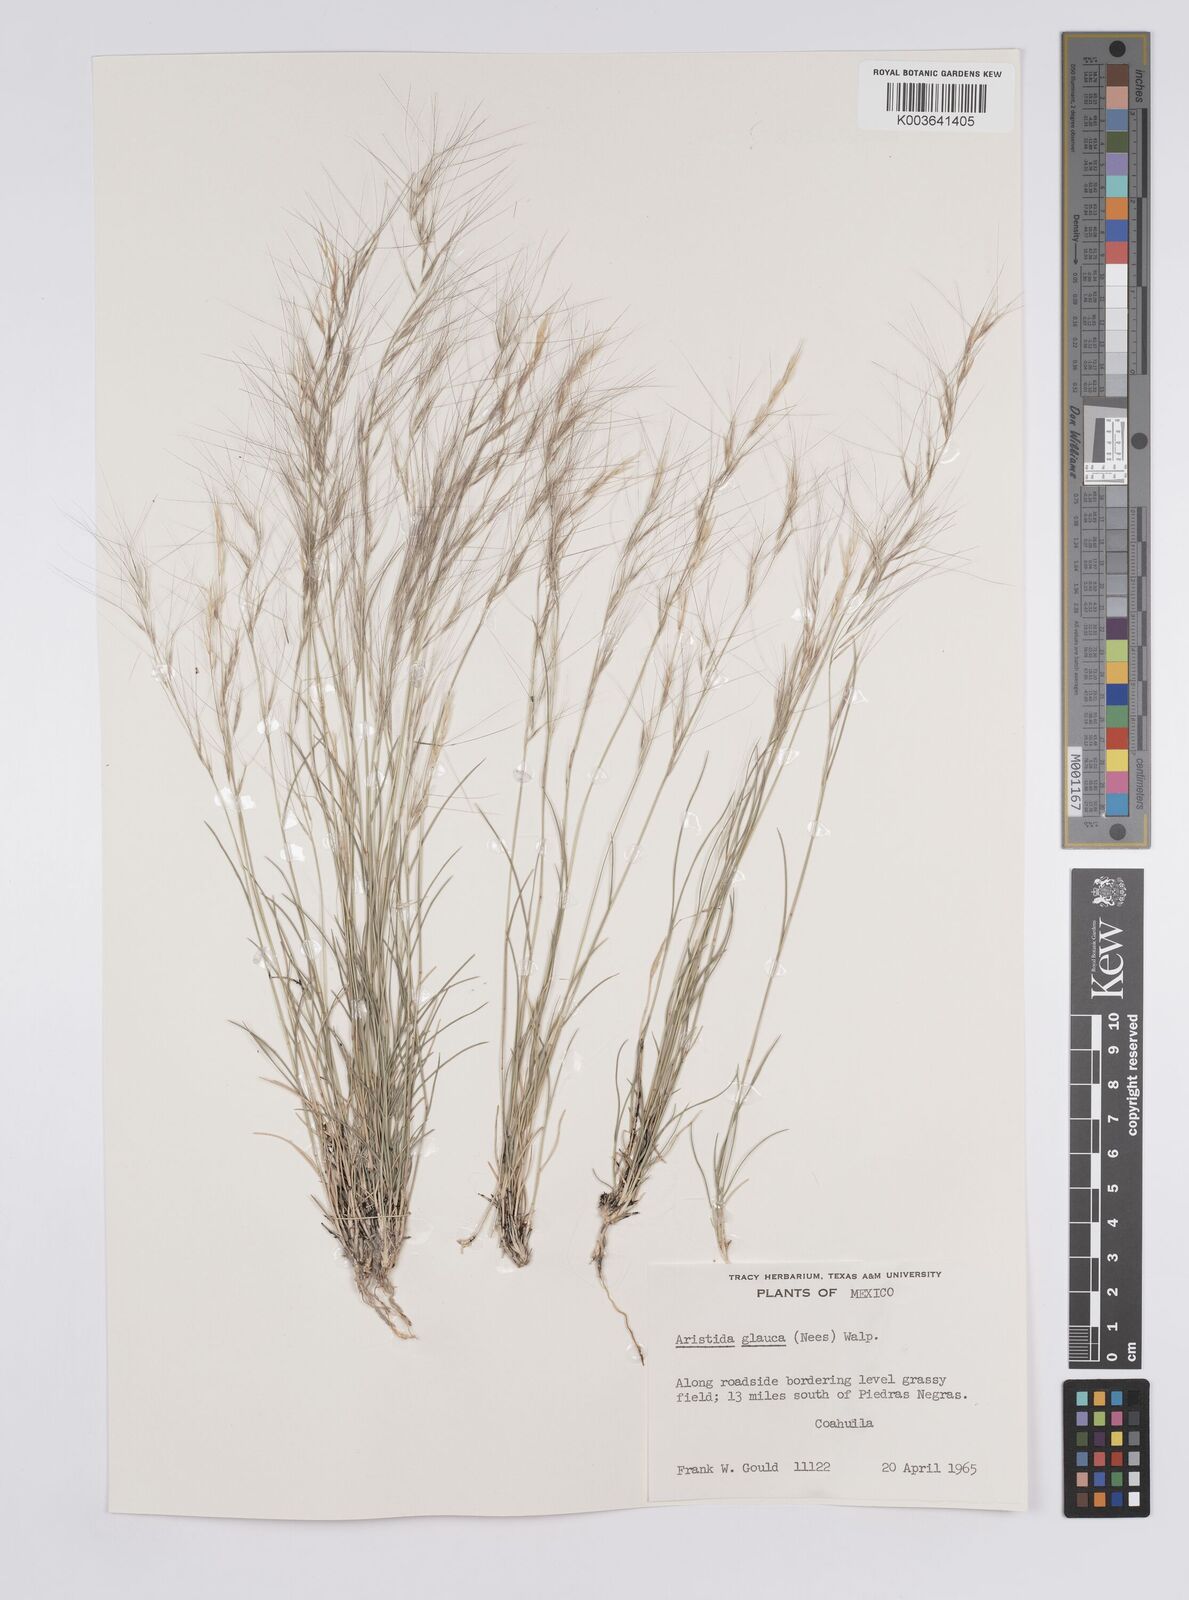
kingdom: Plantae
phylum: Tracheophyta
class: Liliopsida
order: Poales
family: Poaceae
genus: Aristida
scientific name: Aristida purpurea
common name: Purple threeawn
